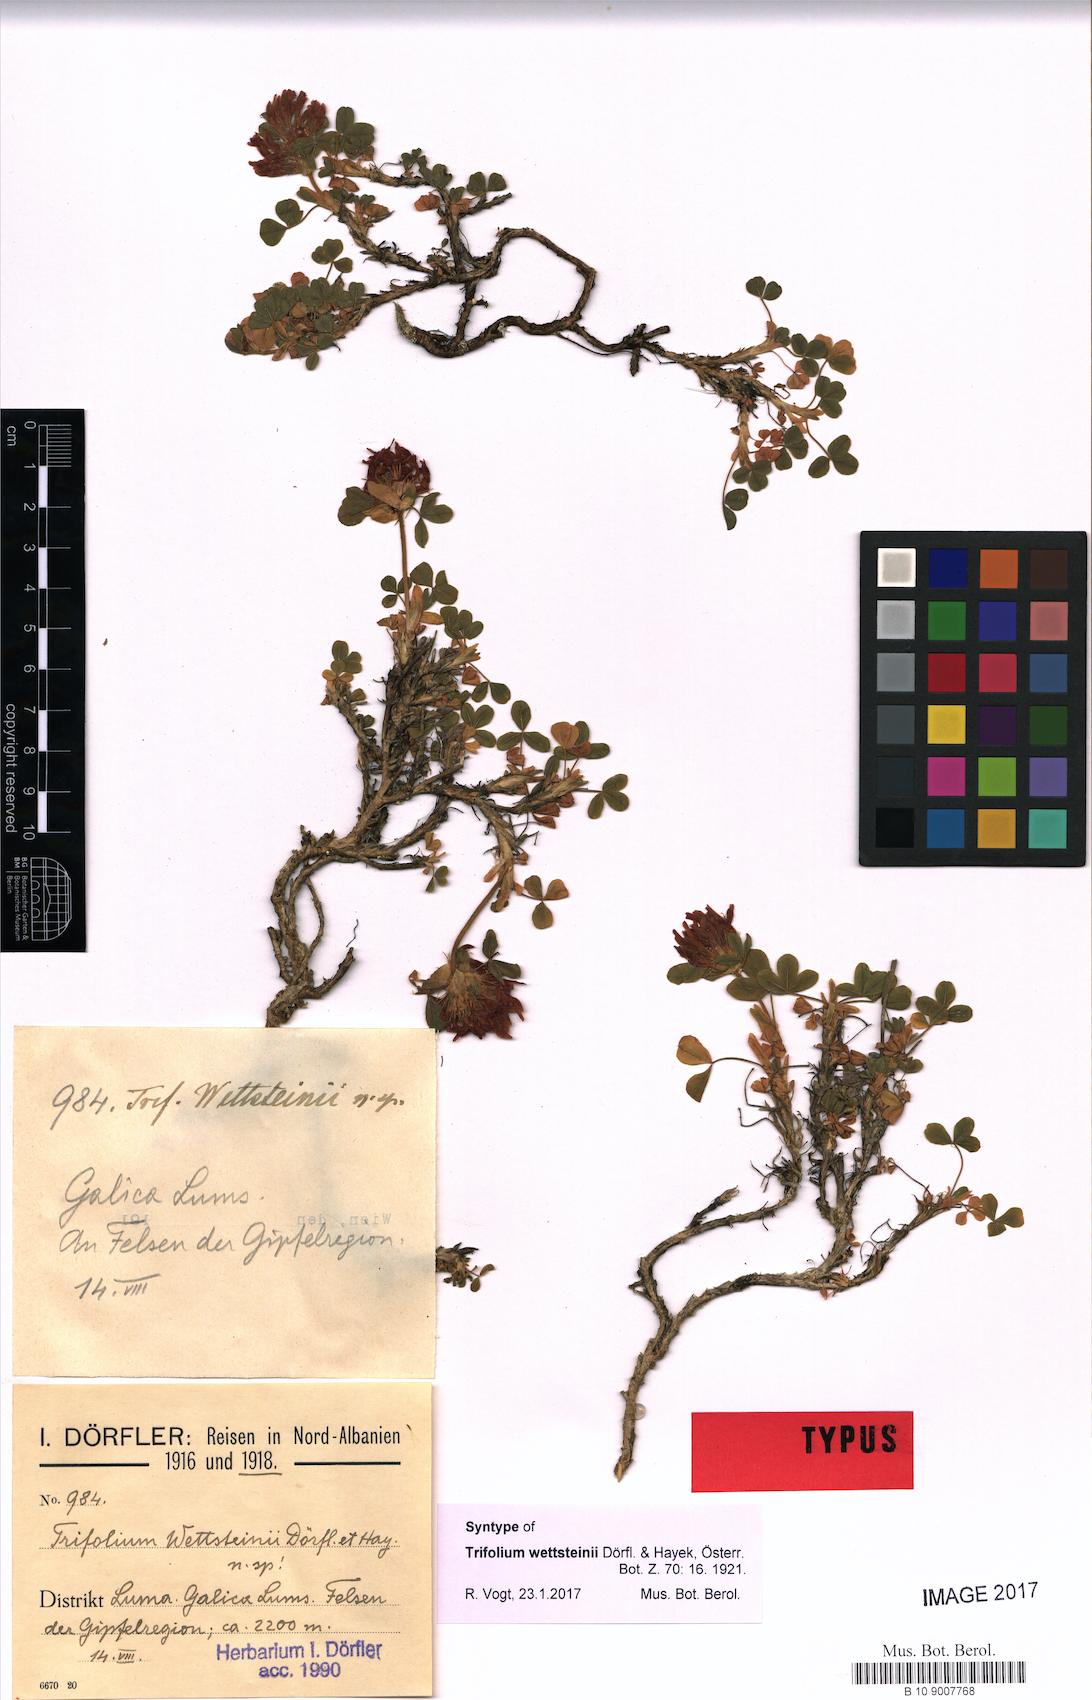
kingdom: Plantae
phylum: Tracheophyta
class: Magnoliopsida
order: Fabales
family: Fabaceae
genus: Trifolium
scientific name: Trifolium wettsteinii
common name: Wettstein's clover
